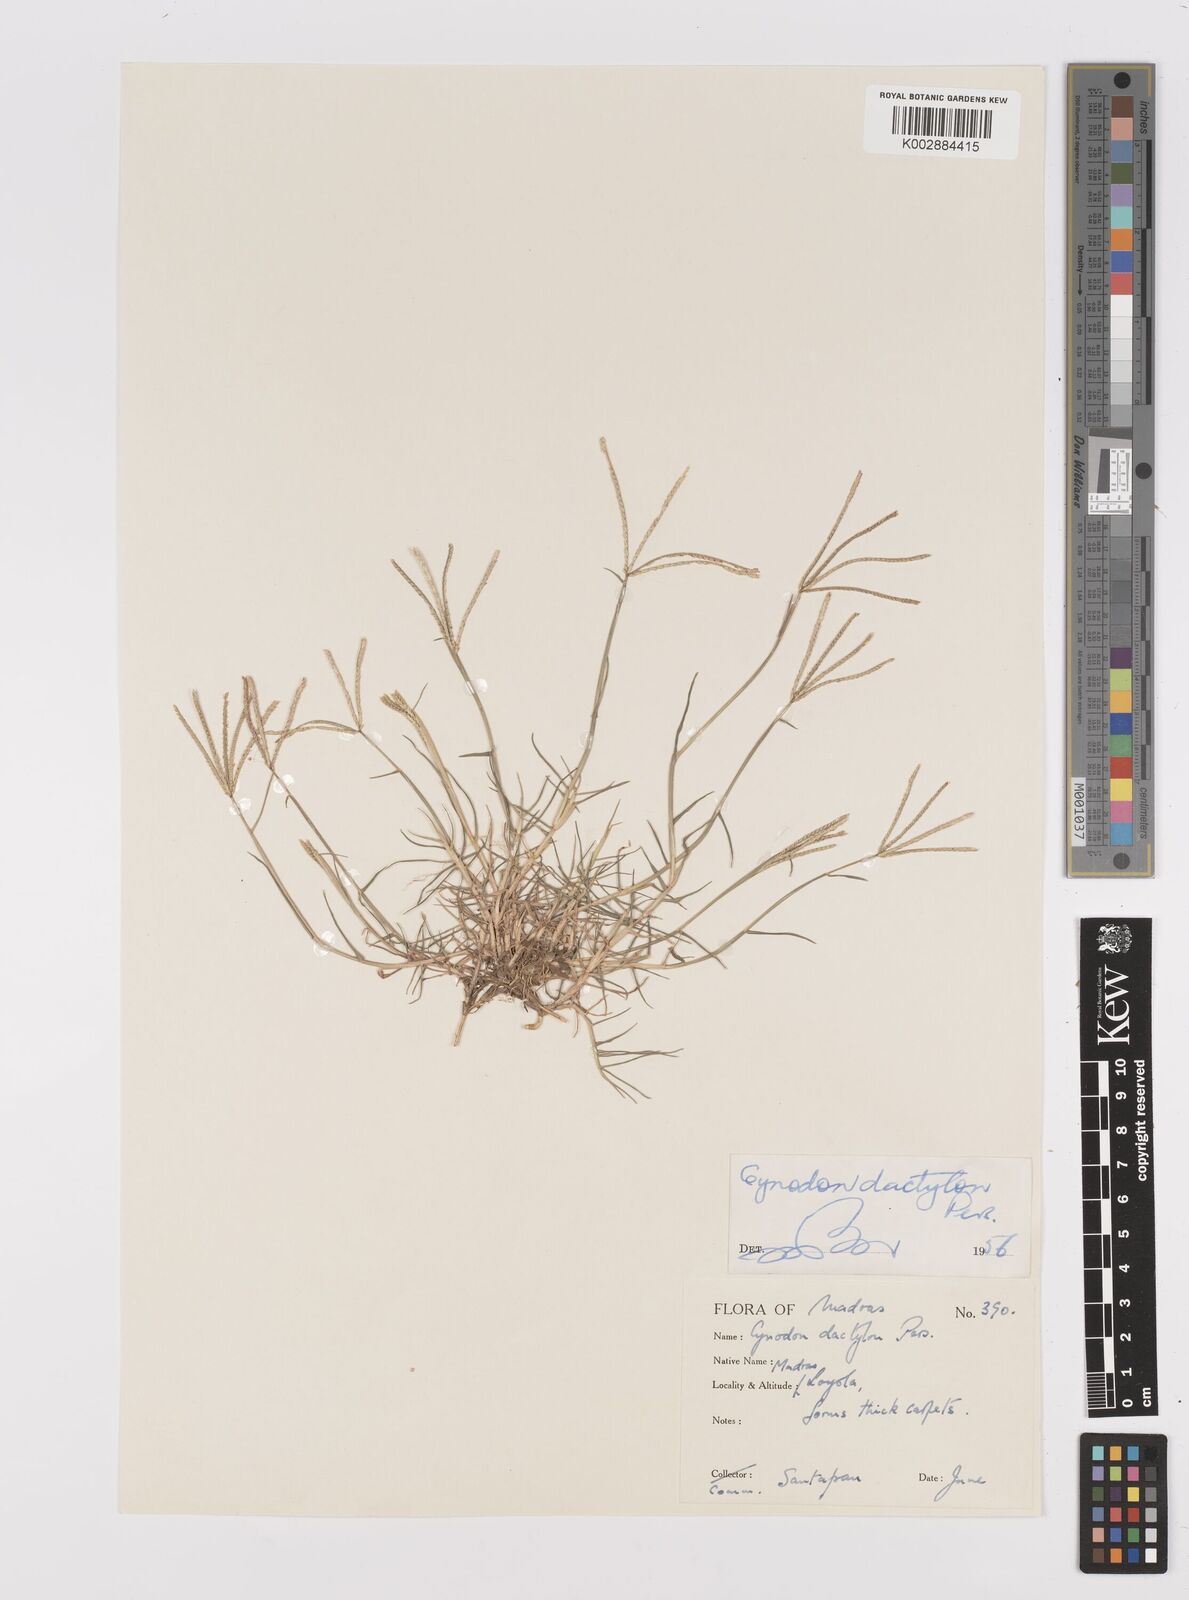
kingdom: Plantae
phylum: Tracheophyta
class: Liliopsida
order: Poales
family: Poaceae
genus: Cynodon
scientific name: Cynodon dactylon
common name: Bermuda grass
